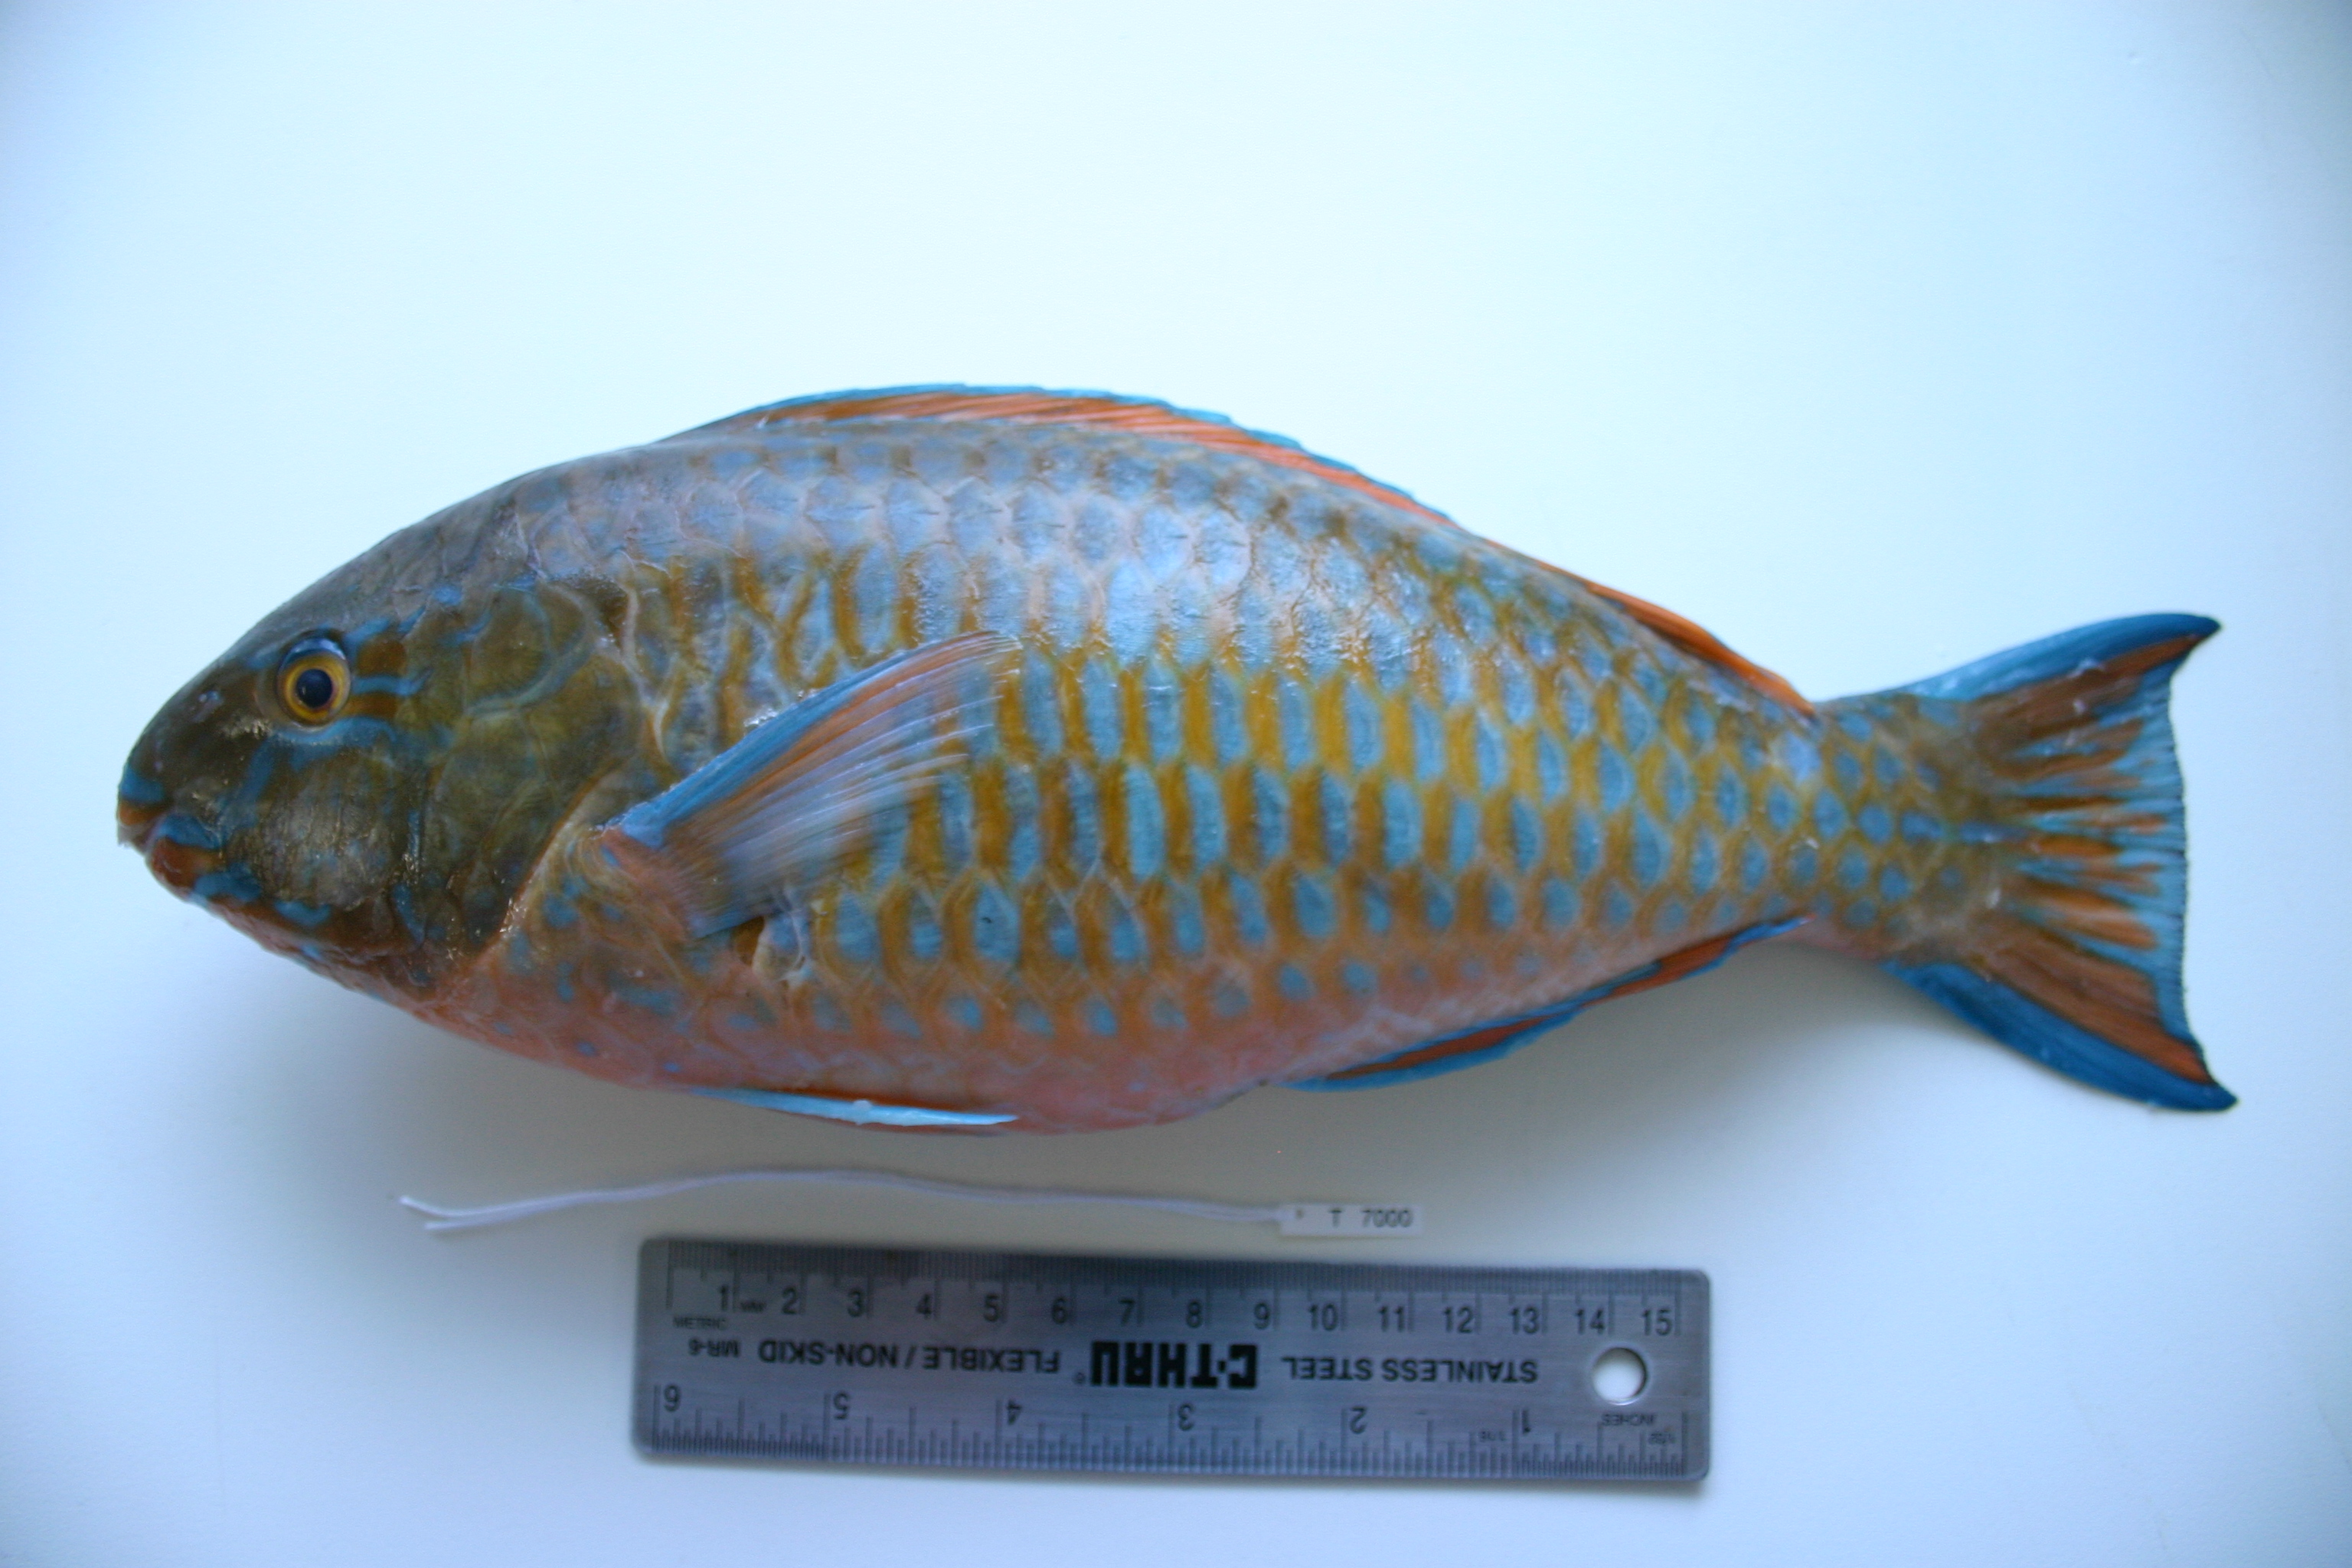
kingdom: Animalia
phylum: Chordata
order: Perciformes
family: Scaridae
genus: Scarus
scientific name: Scarus ghobban
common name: Blue-barred parrotfish
